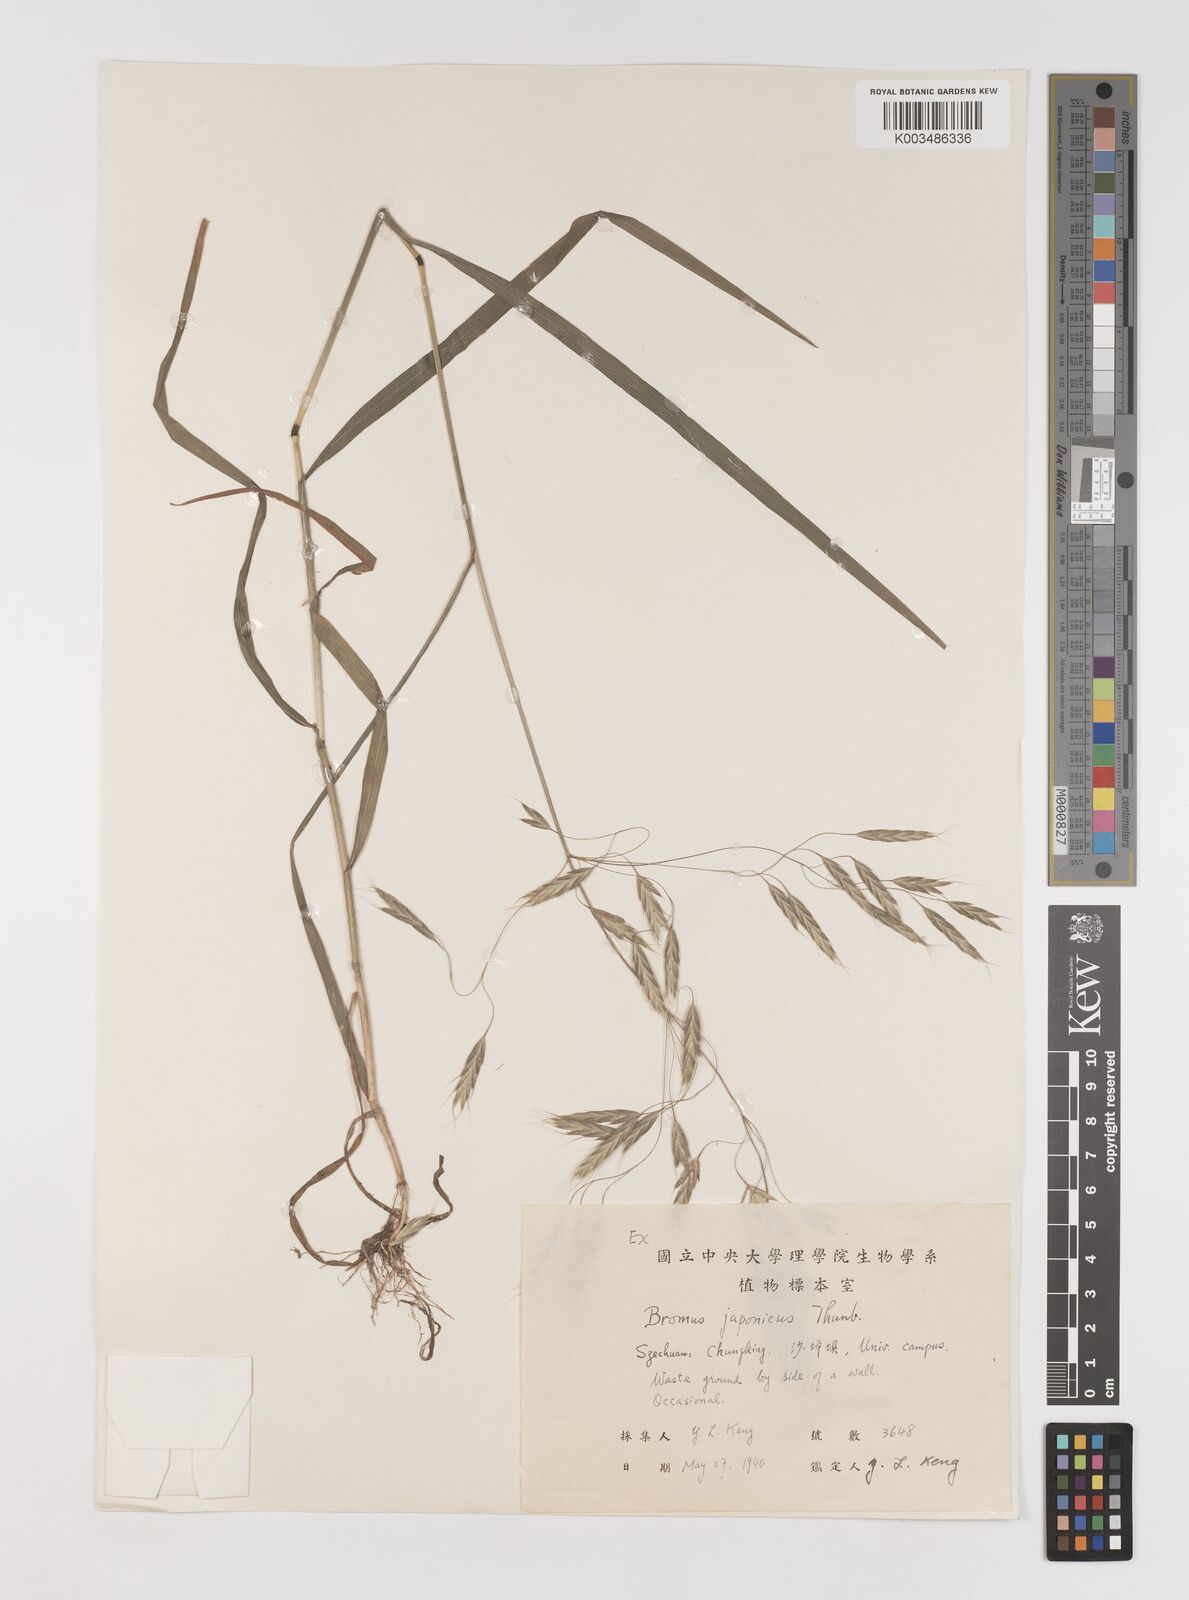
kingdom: Plantae
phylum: Tracheophyta
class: Liliopsida
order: Poales
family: Poaceae
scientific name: Poaceae
